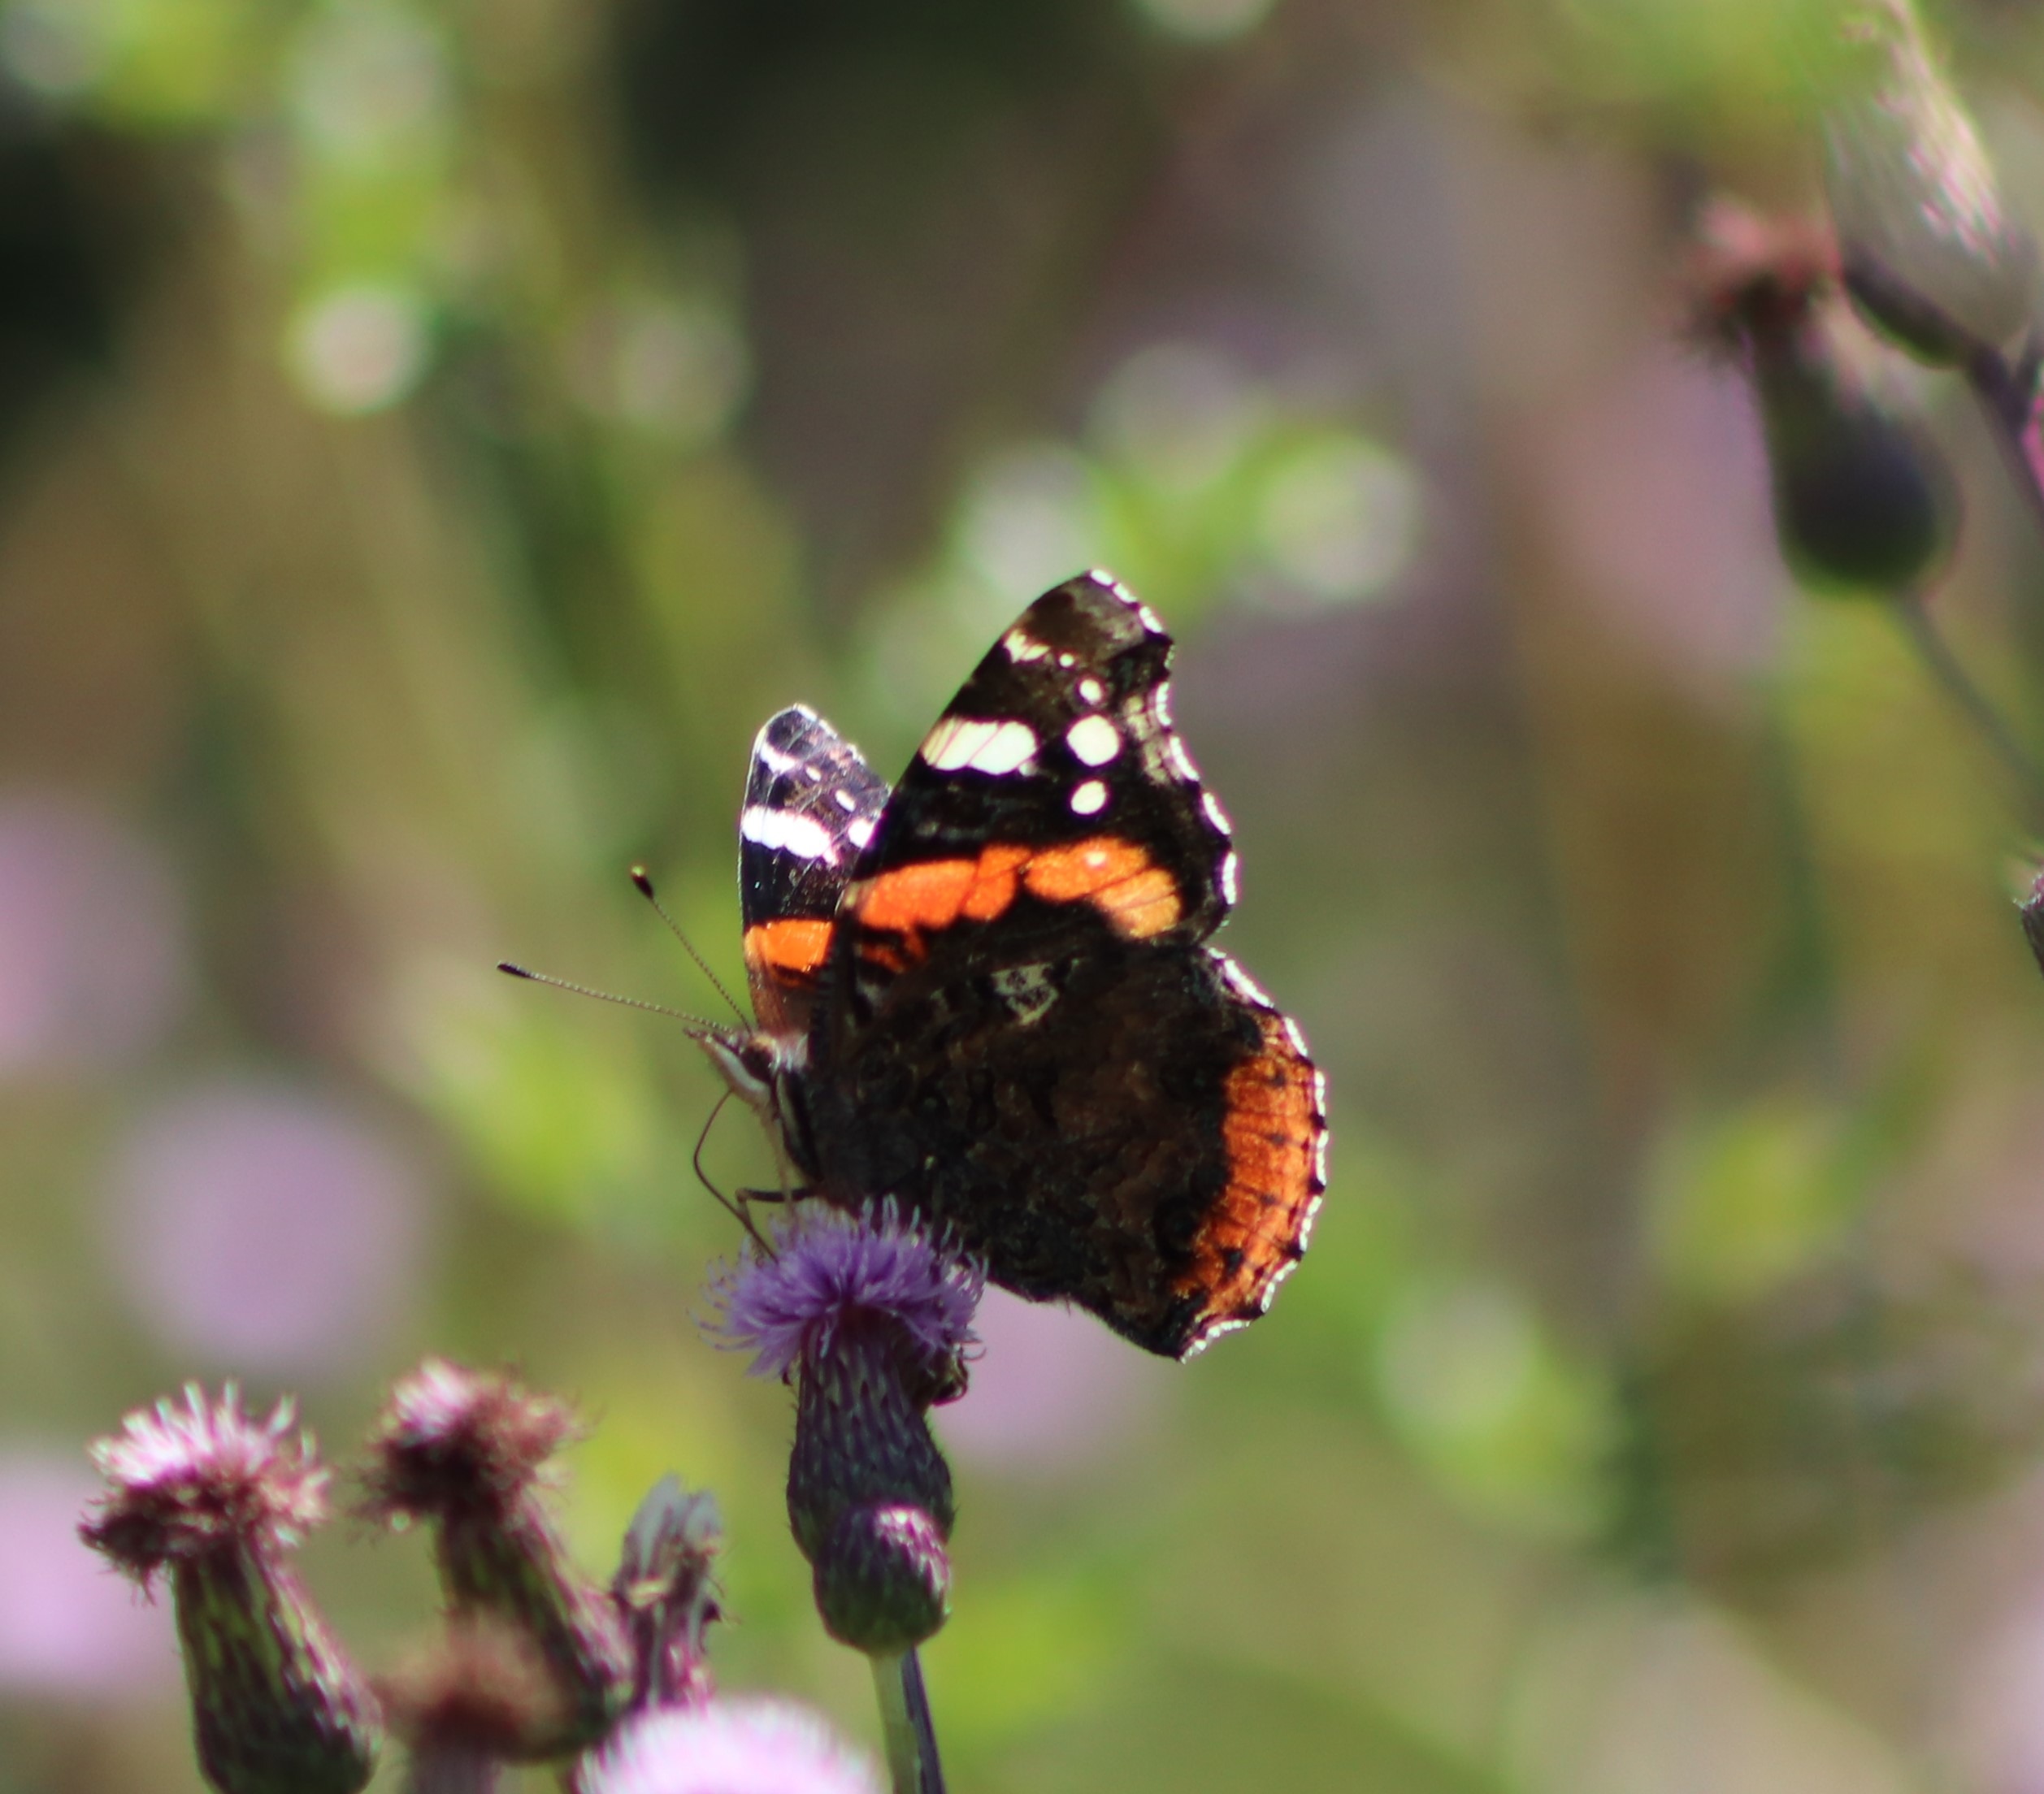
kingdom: Animalia
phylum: Arthropoda
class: Insecta
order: Lepidoptera
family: Nymphalidae
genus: Vanessa
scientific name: Vanessa atalanta
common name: Admiral
